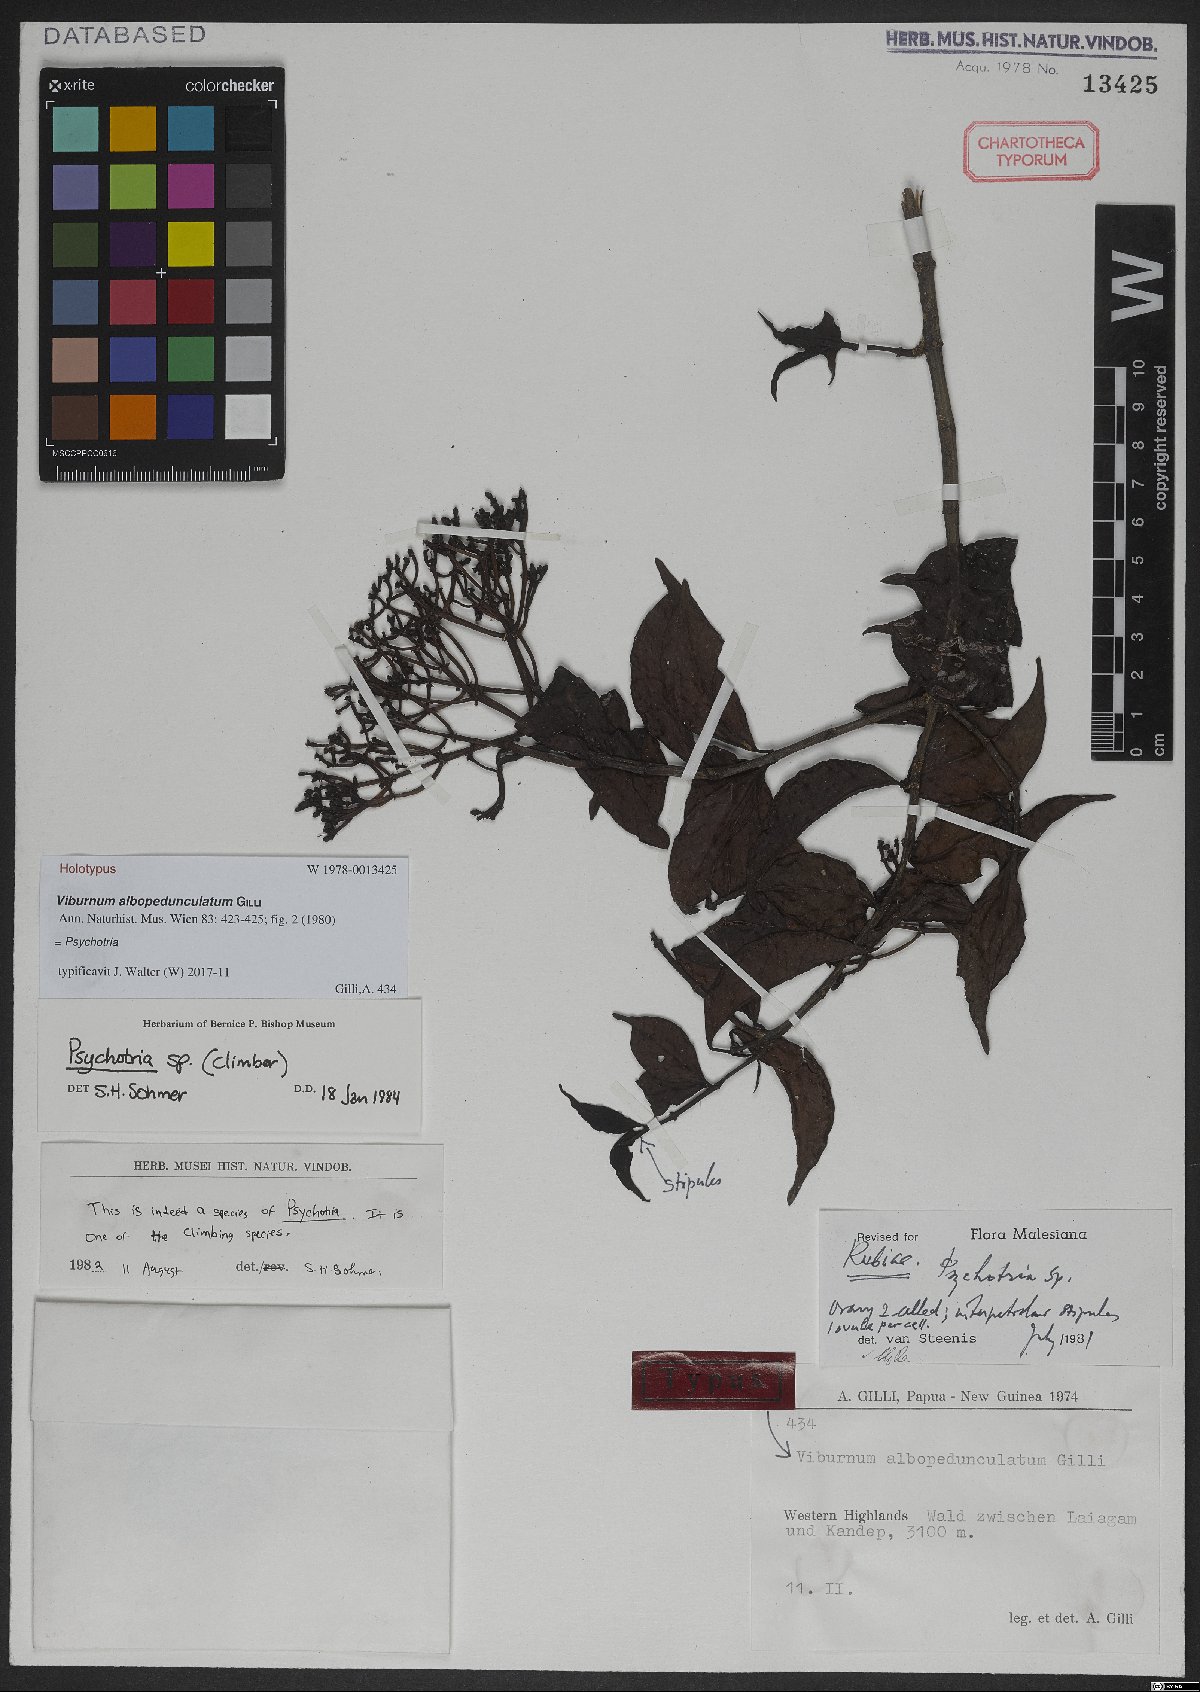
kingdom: Plantae
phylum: Tracheophyta
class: Magnoliopsida
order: Gentianales
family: Rubiaceae
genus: Psychotria
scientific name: Psychotria
